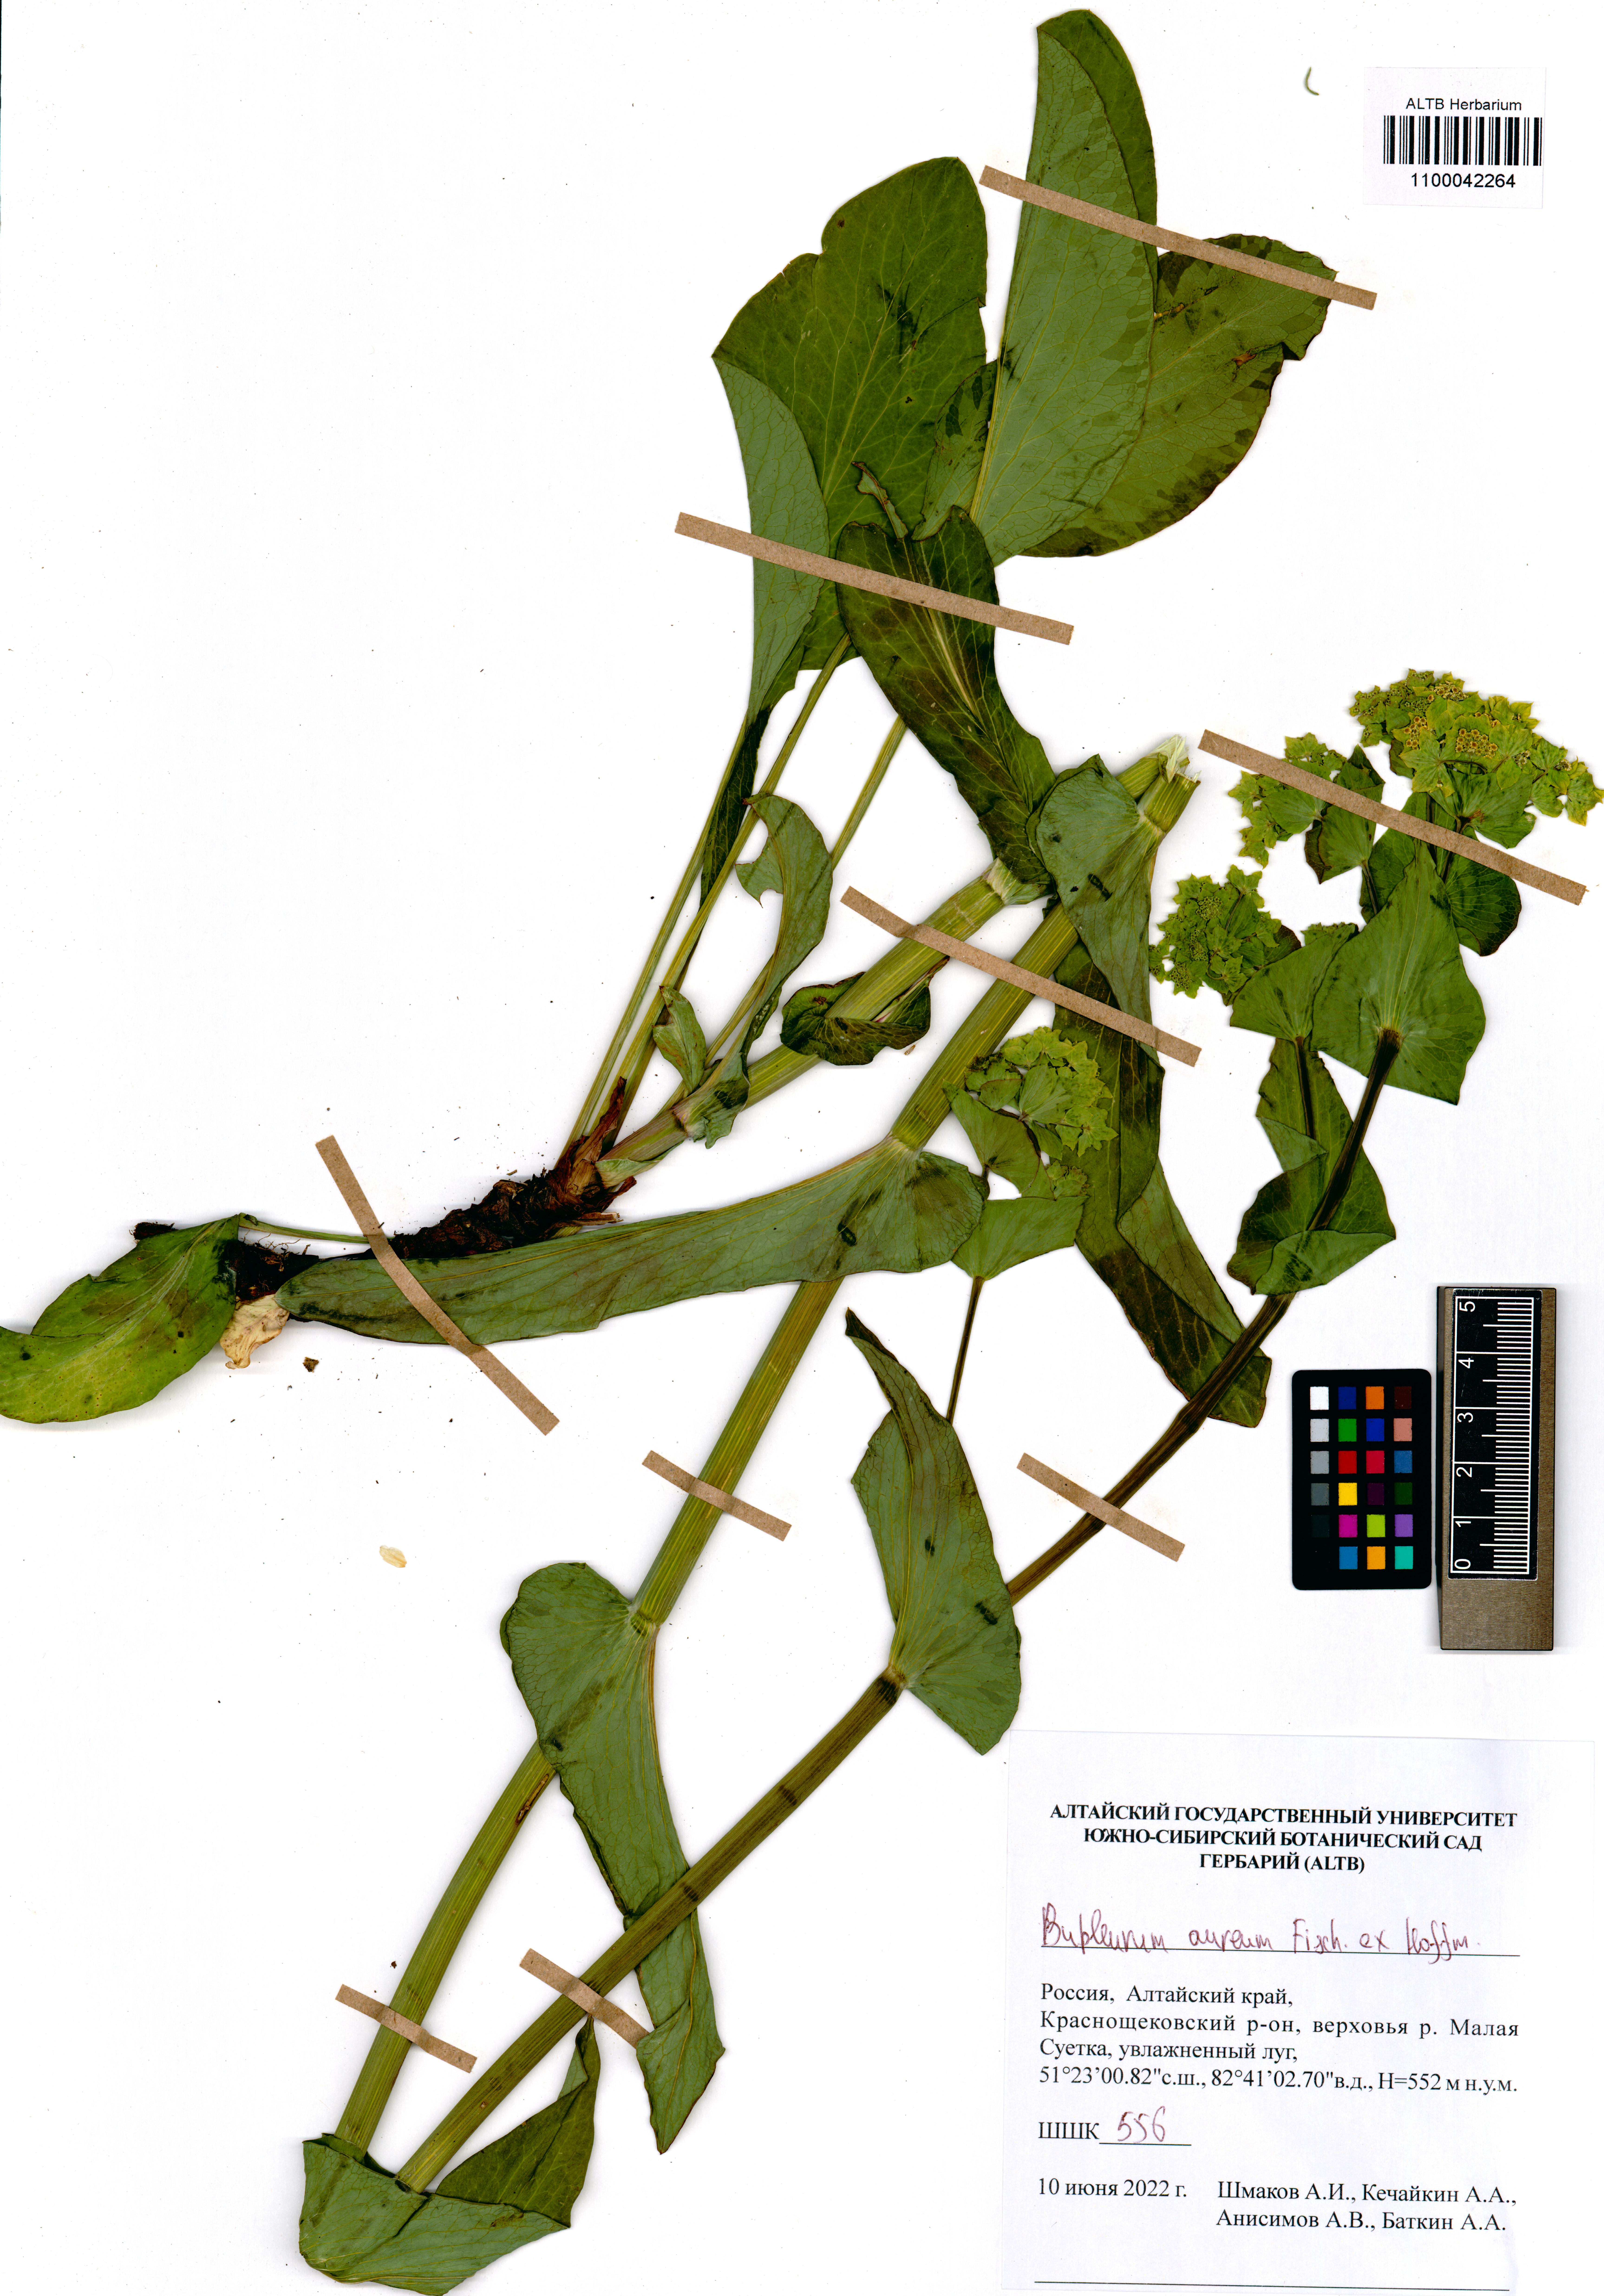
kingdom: Plantae
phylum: Tracheophyta
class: Magnoliopsida
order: Apiales
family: Apiaceae
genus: Bupleurum
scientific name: Bupleurum aureum
